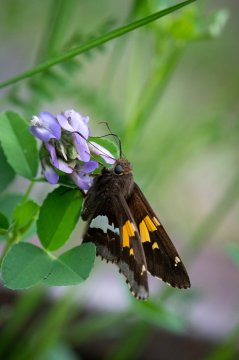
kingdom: Animalia
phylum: Arthropoda
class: Insecta
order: Lepidoptera
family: Hesperiidae
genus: Epargyreus
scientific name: Epargyreus clarus
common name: Silver-spotted Skipper
